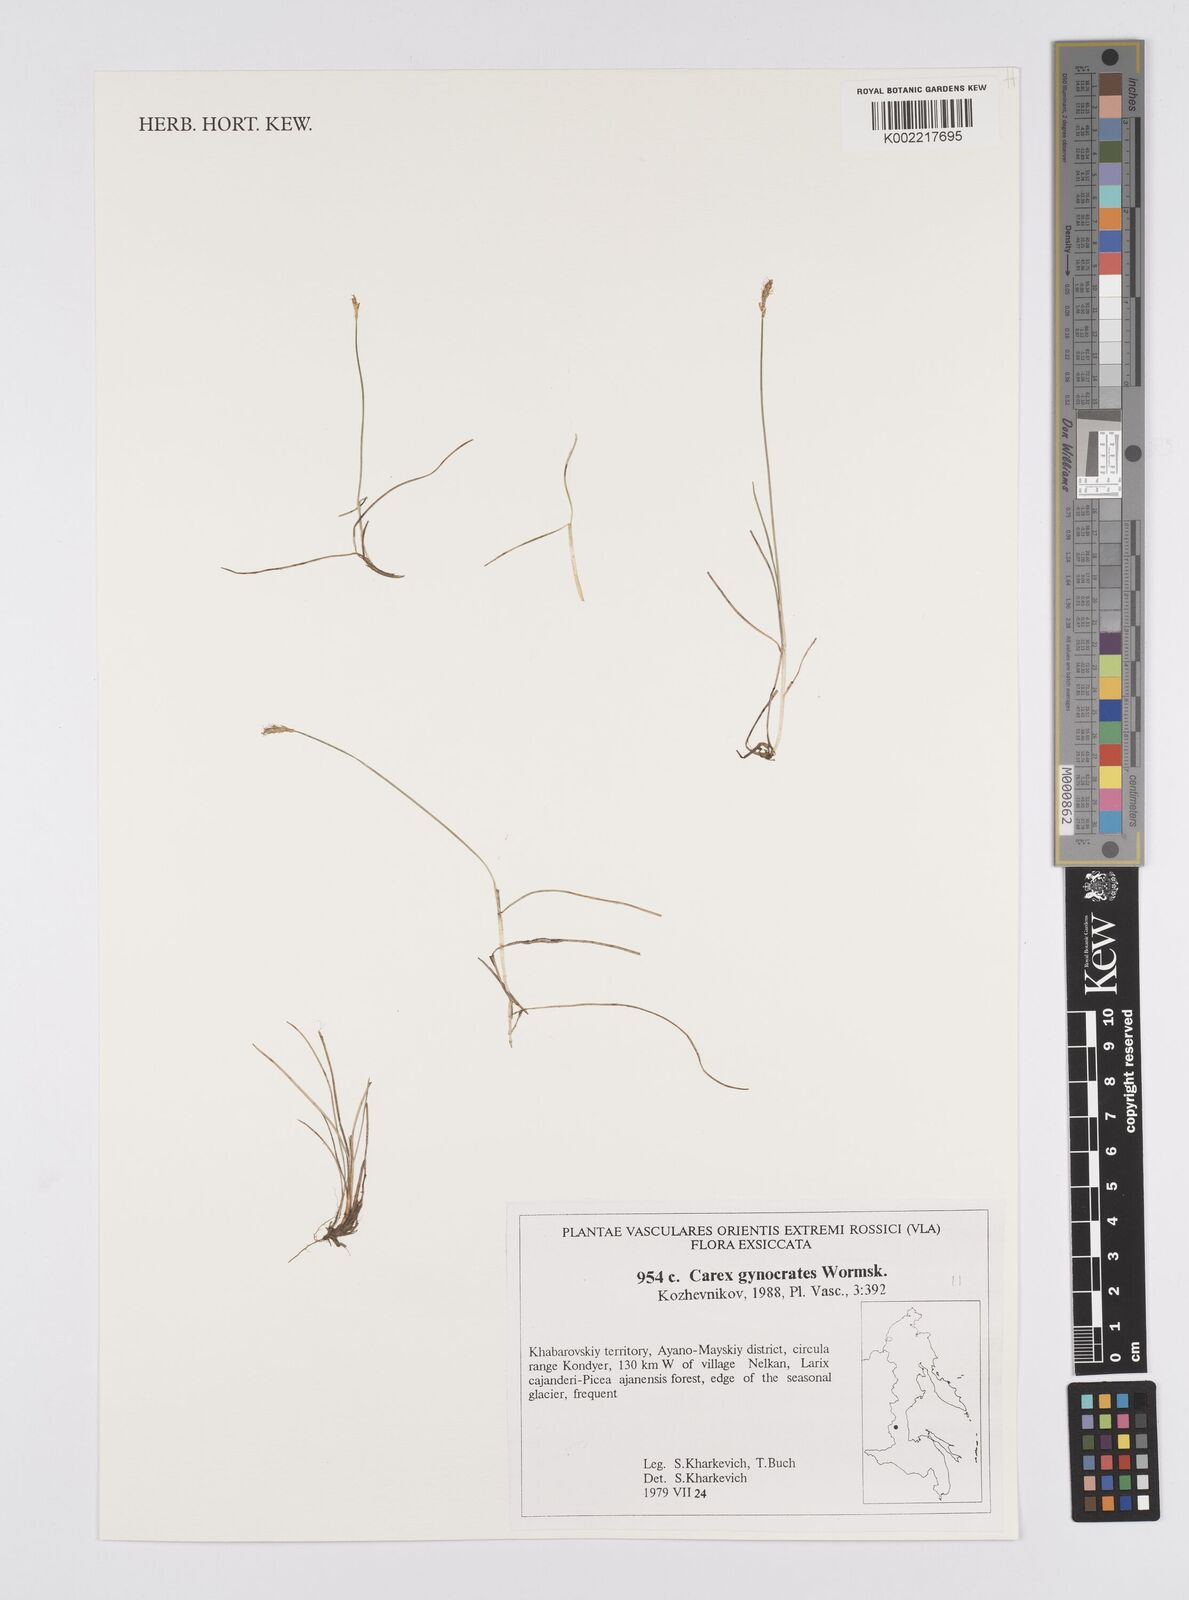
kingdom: Plantae
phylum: Tracheophyta
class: Liliopsida
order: Poales
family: Cyperaceae
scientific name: Cyperaceae
